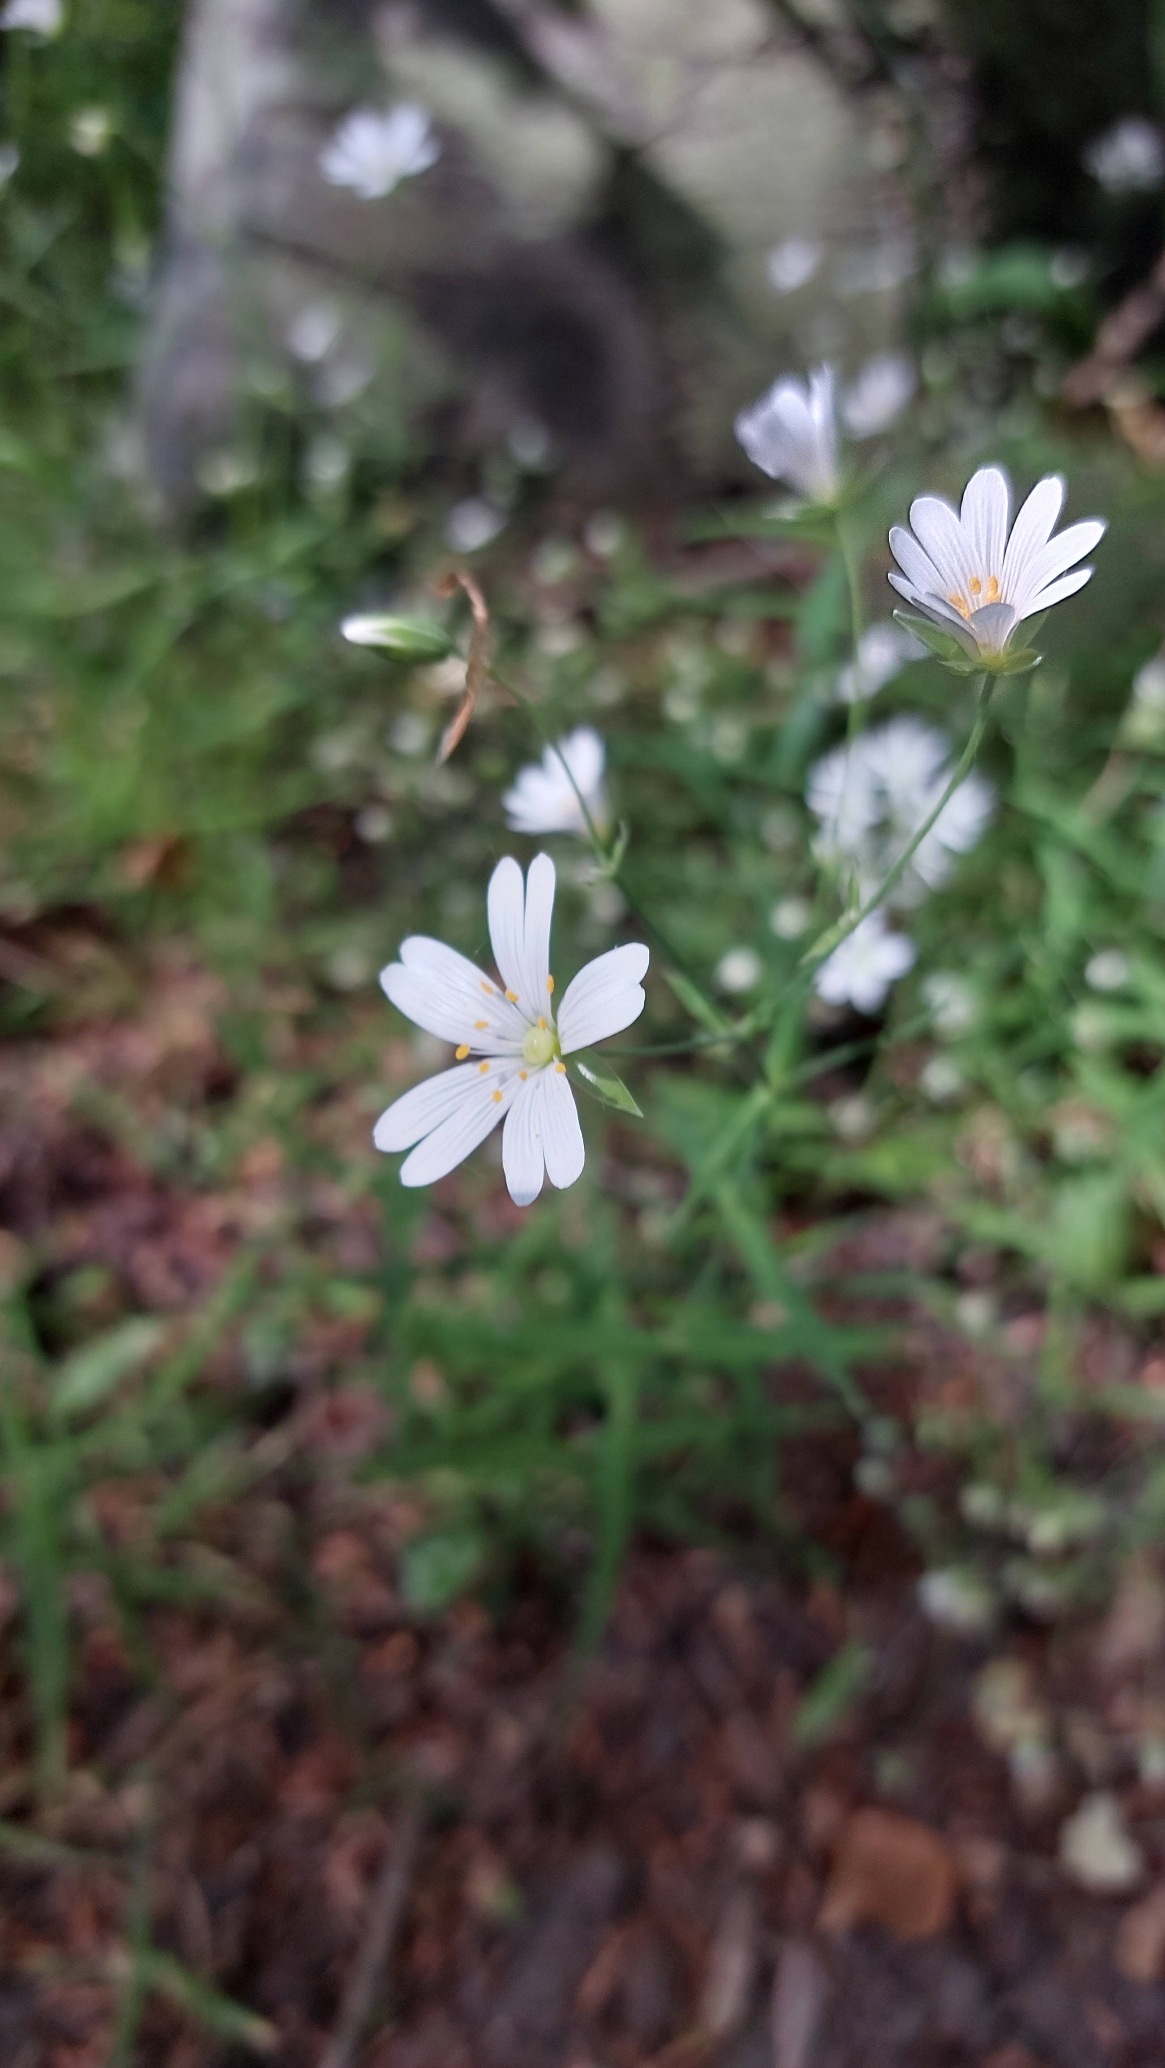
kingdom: Plantae
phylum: Tracheophyta
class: Magnoliopsida
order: Caryophyllales
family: Caryophyllaceae
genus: Rabelera
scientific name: Rabelera holostea
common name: Stor fladstjerne
